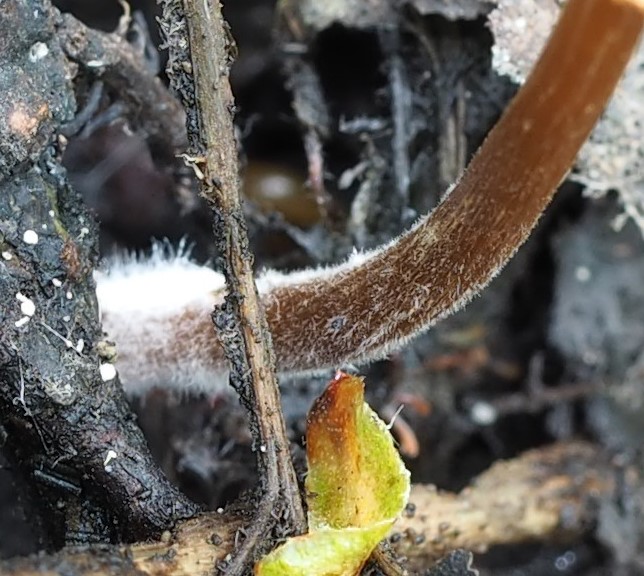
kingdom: Fungi
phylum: Basidiomycota
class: Agaricomycetes
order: Agaricales
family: Hymenogastraceae
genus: Naucoria
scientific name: Naucoria subconspersa
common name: filtet knaphat
